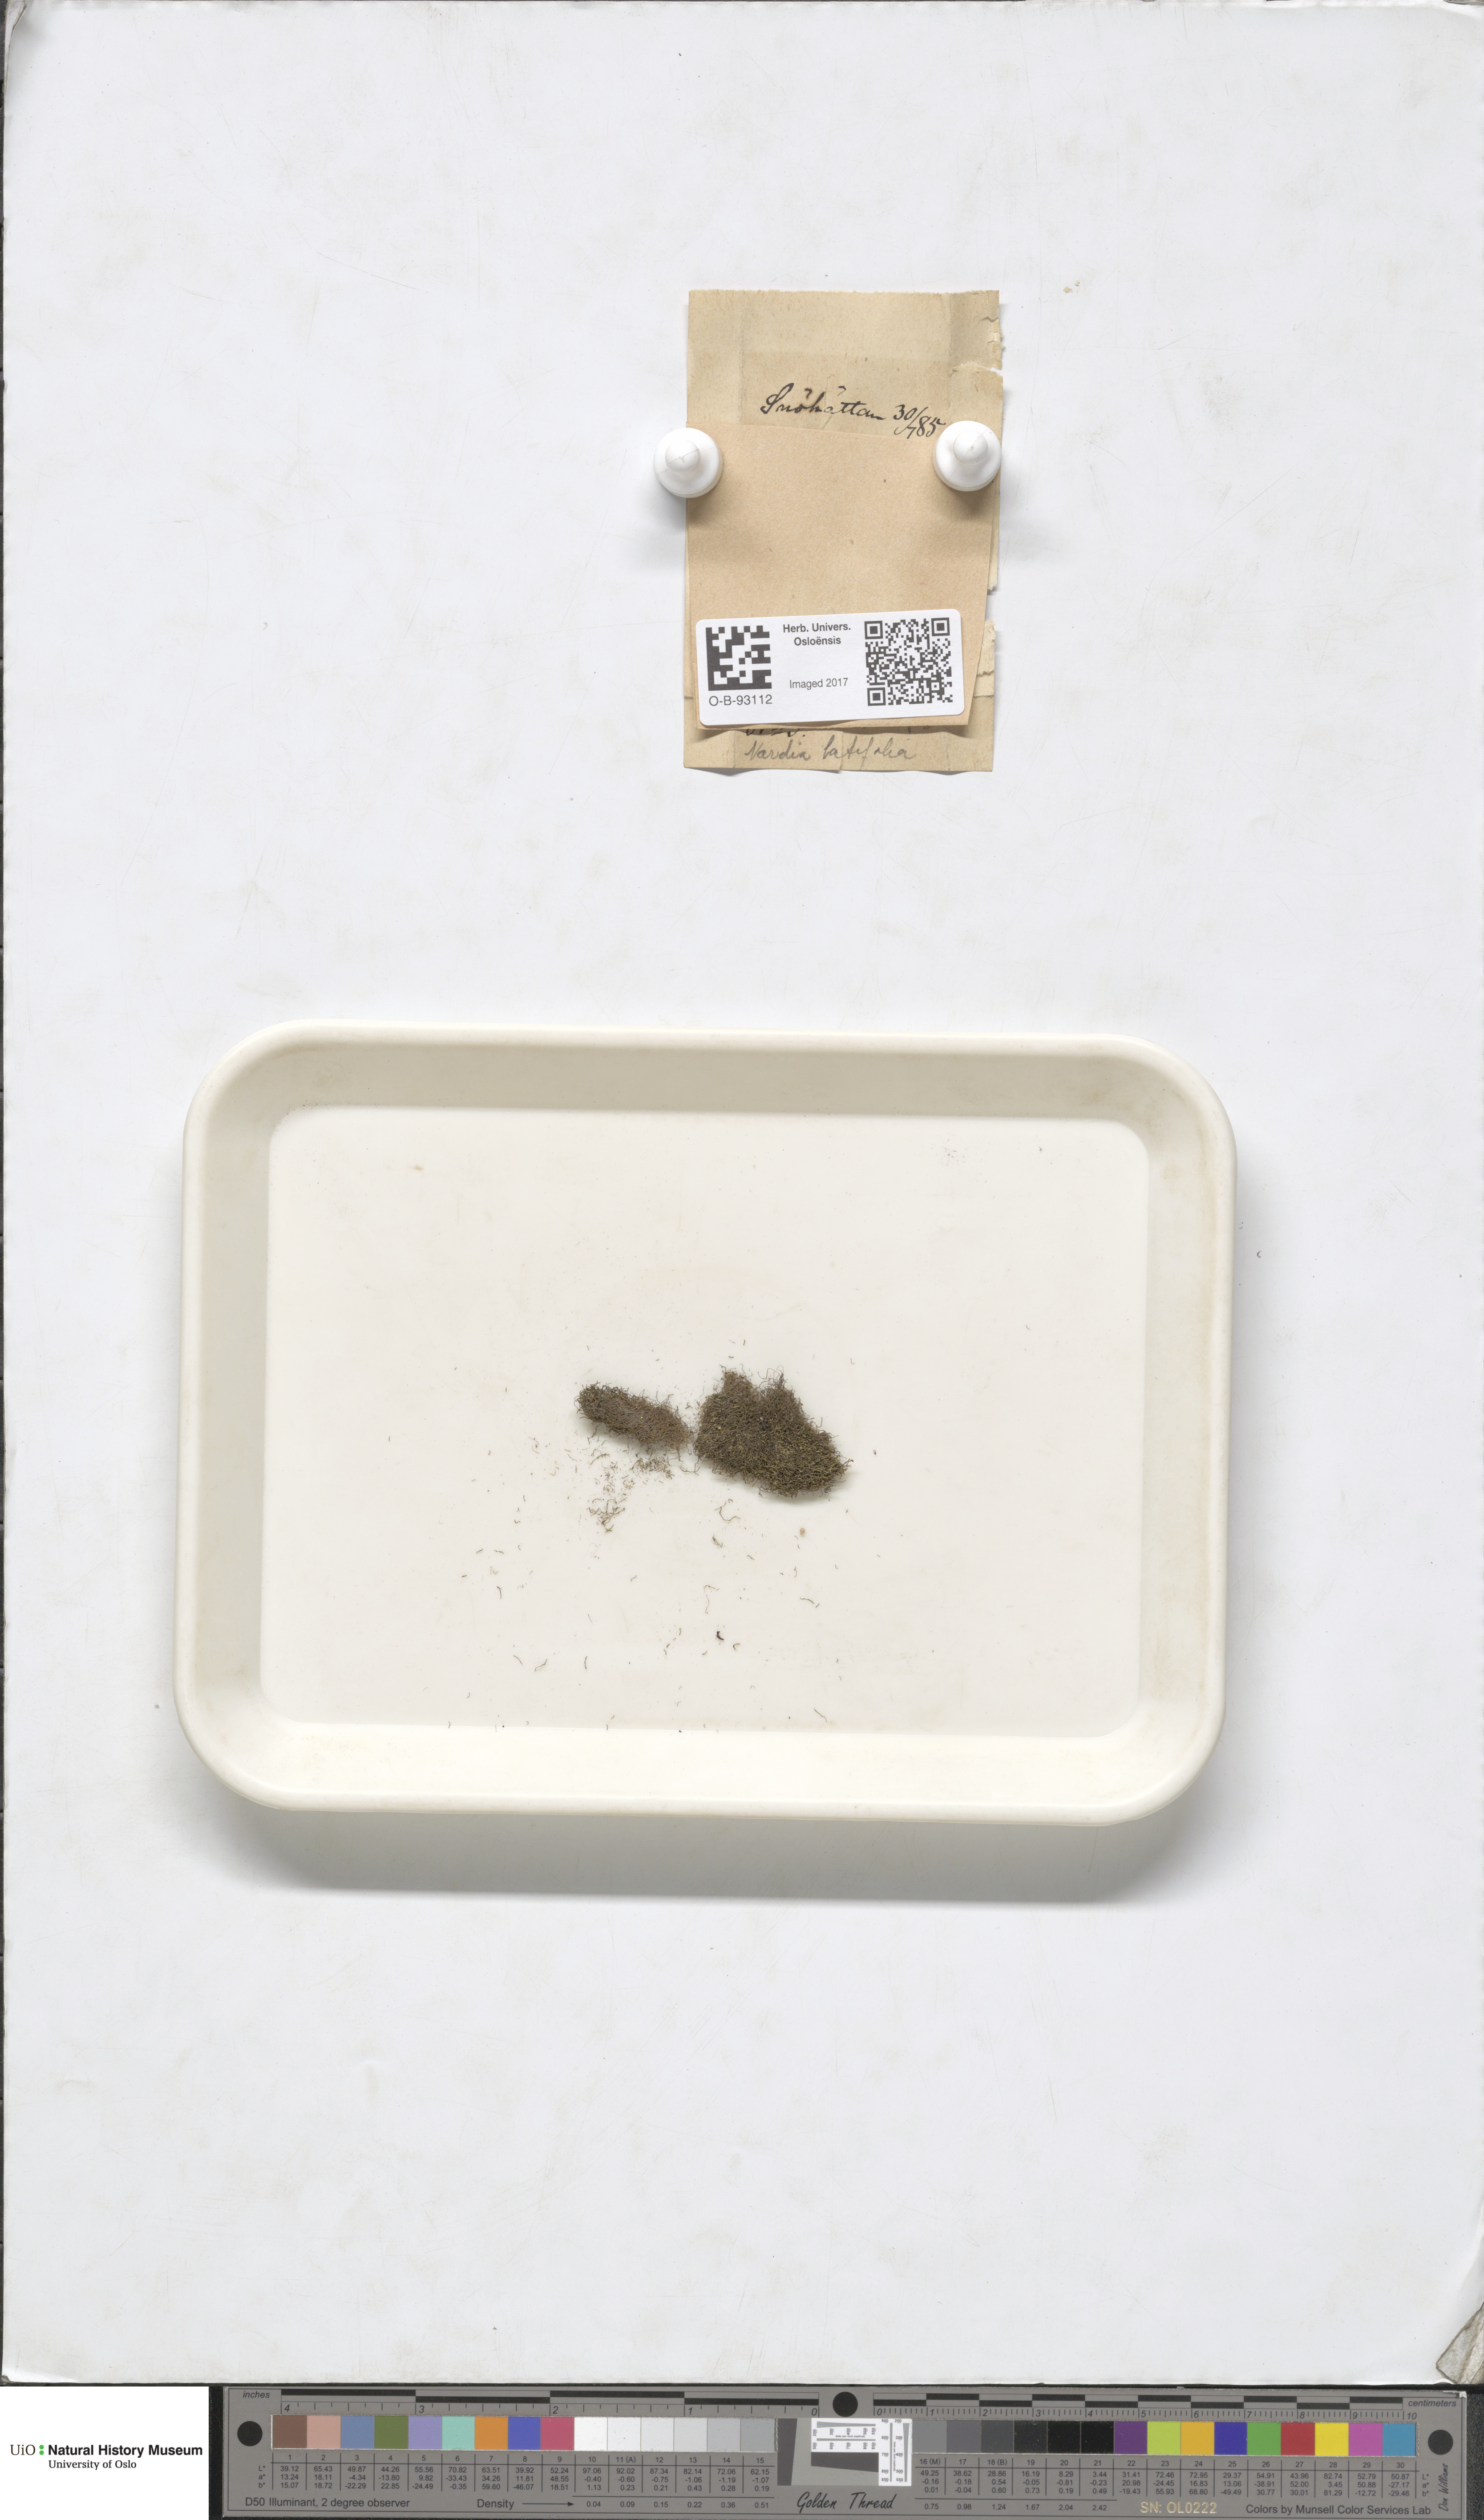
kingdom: Plantae
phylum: Marchantiophyta
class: Jungermanniopsida
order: Jungermanniales
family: Gymnomitriaceae
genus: Marsupella
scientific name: Marsupella boeckii
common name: Boeck s rustwort
